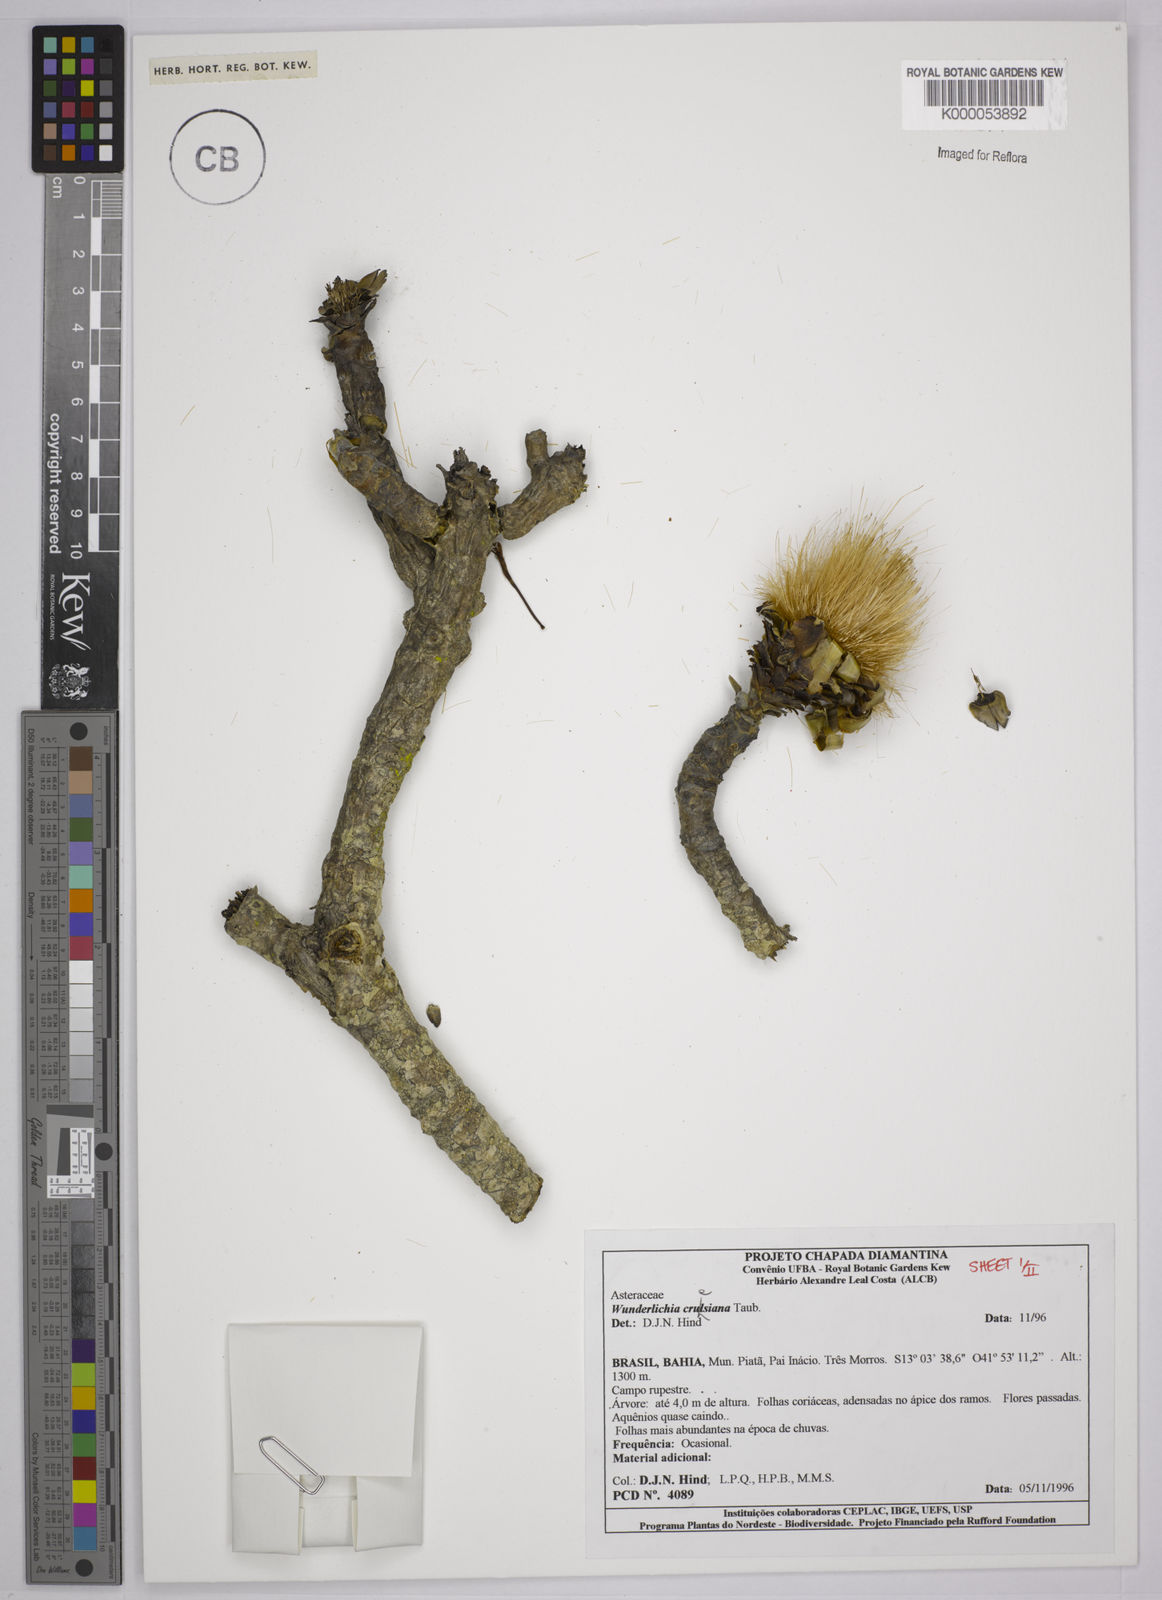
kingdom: Plantae
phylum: Tracheophyta
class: Magnoliopsida
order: Asterales
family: Asteraceae
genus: Wunderlichia
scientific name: Wunderlichia
